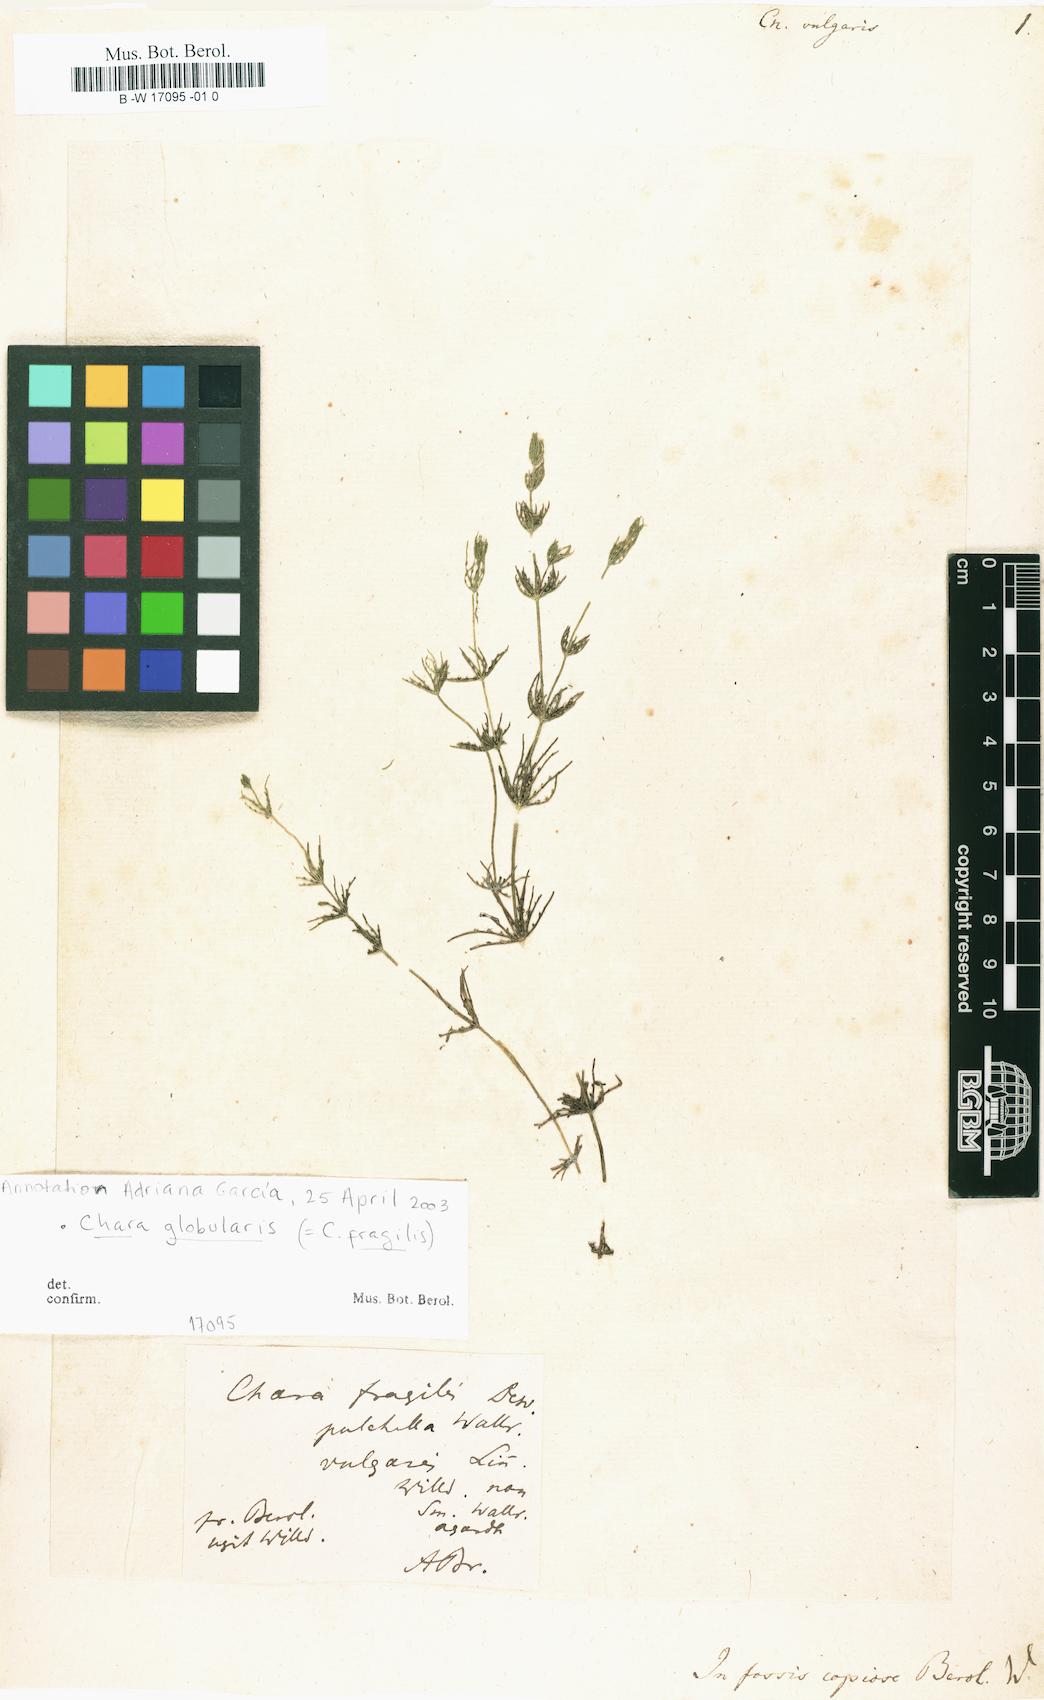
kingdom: Plantae
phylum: Charophyta
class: Charophyceae
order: Charales
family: Characeae
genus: Chara
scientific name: Chara vulgaris
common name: Common stonewort
